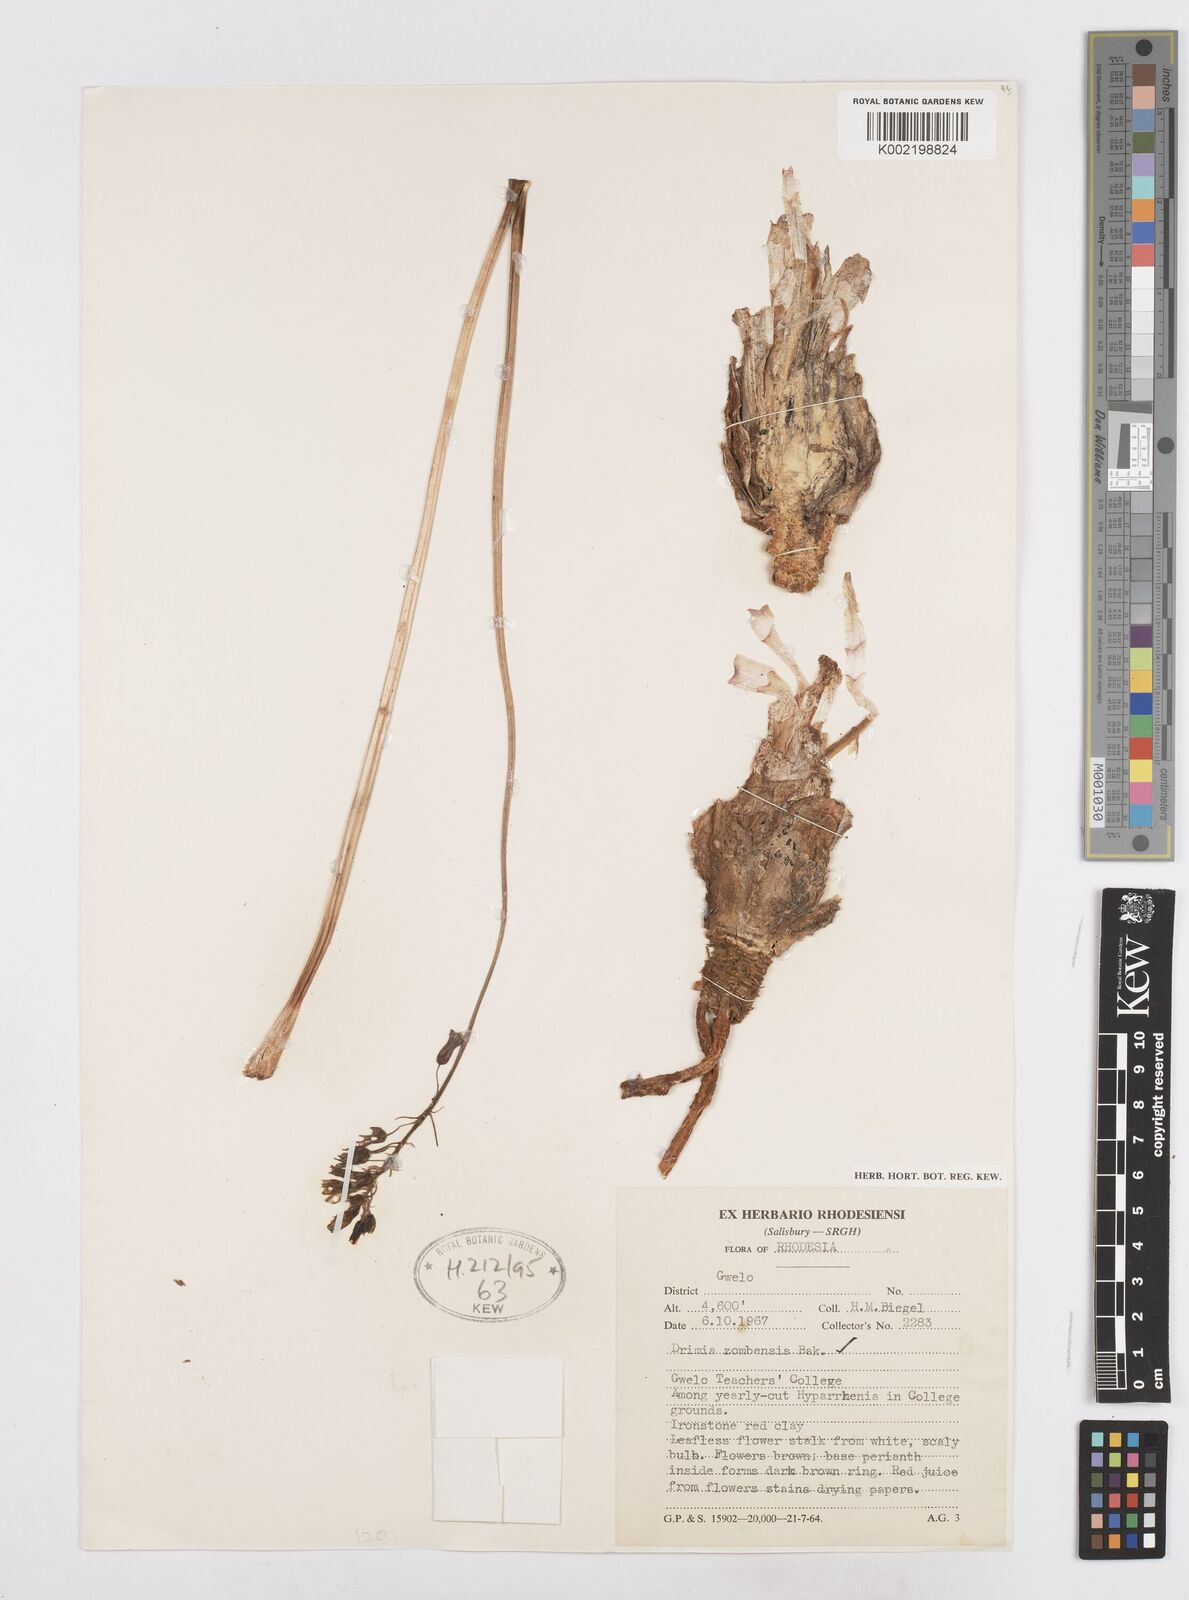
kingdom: Plantae
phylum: Tracheophyta
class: Liliopsida
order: Asparagales
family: Asparagaceae
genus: Drimia
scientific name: Drimia
